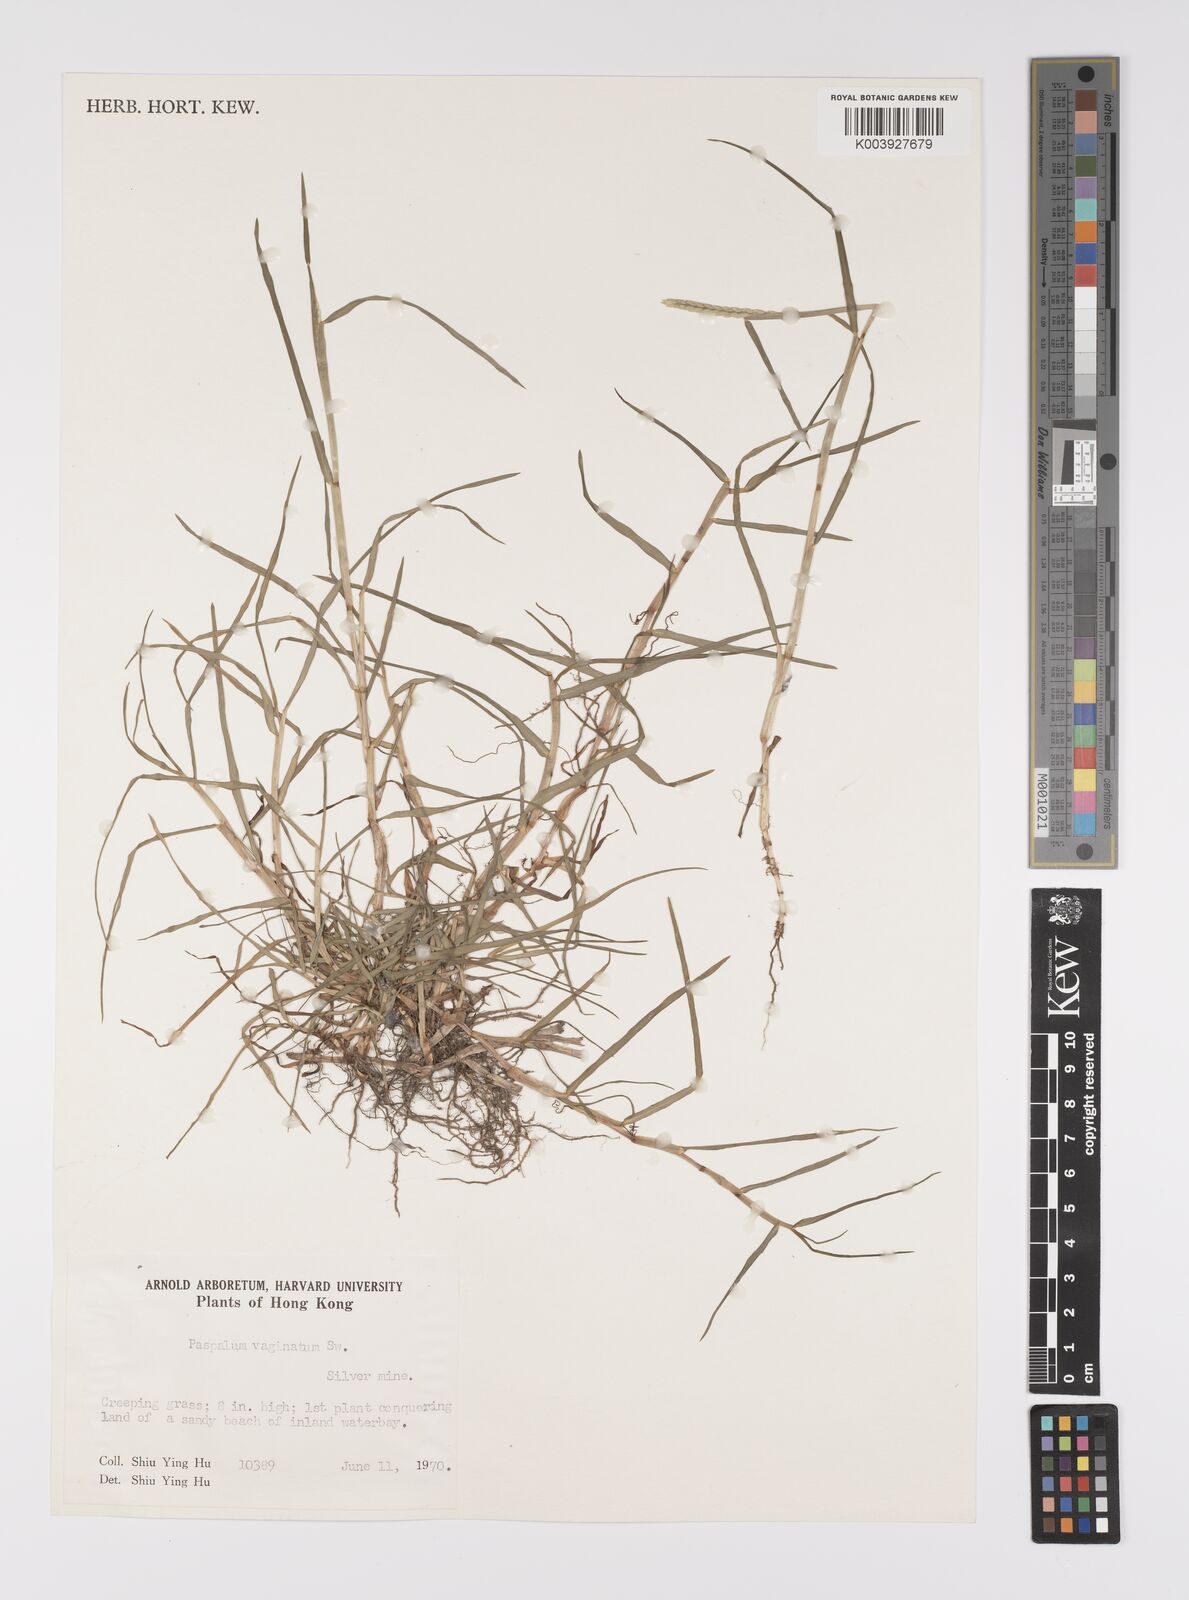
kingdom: Plantae
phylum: Tracheophyta
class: Liliopsida
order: Poales
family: Poaceae
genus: Paspalum
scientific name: Paspalum vaginatum
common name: Seashore paspalum
